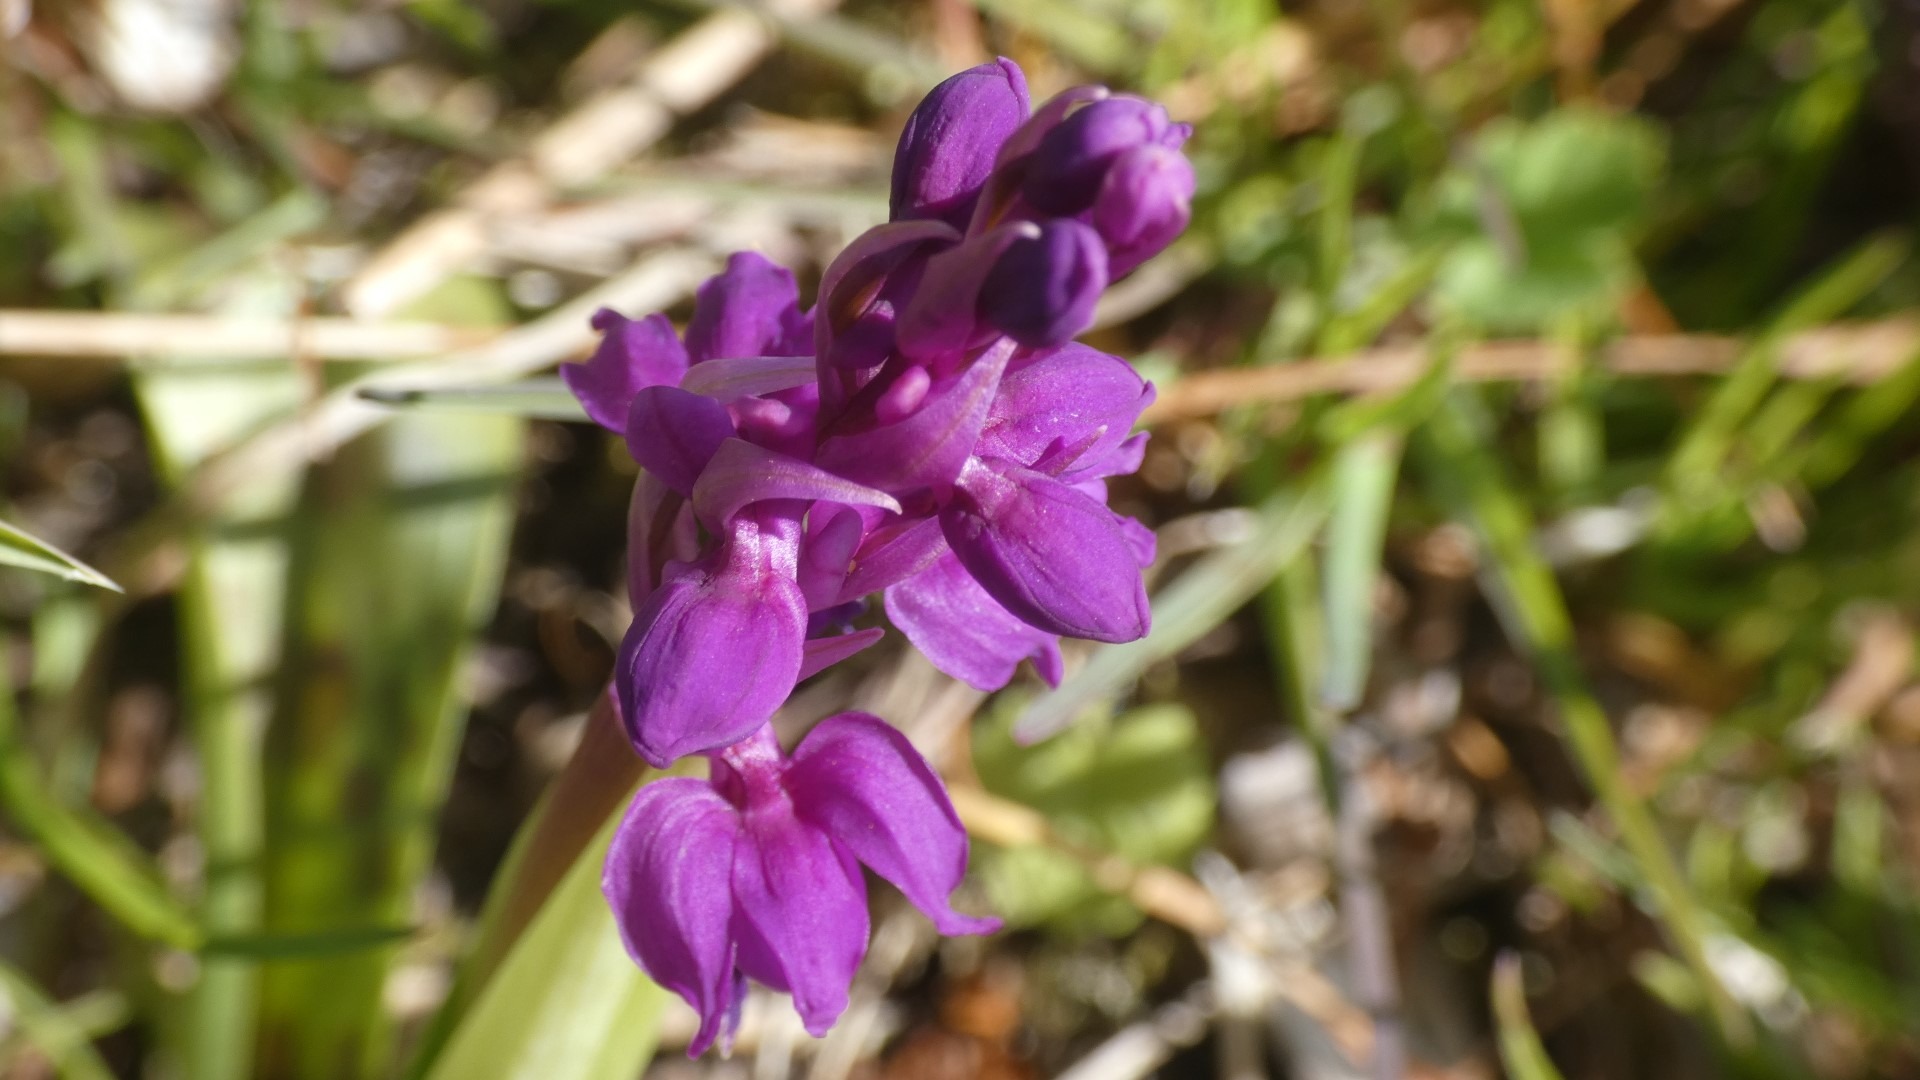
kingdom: Plantae
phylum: Tracheophyta
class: Liliopsida
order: Asparagales
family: Orchidaceae
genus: Orchis
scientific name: Orchis mascula
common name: Tyndakset gøgeurt
